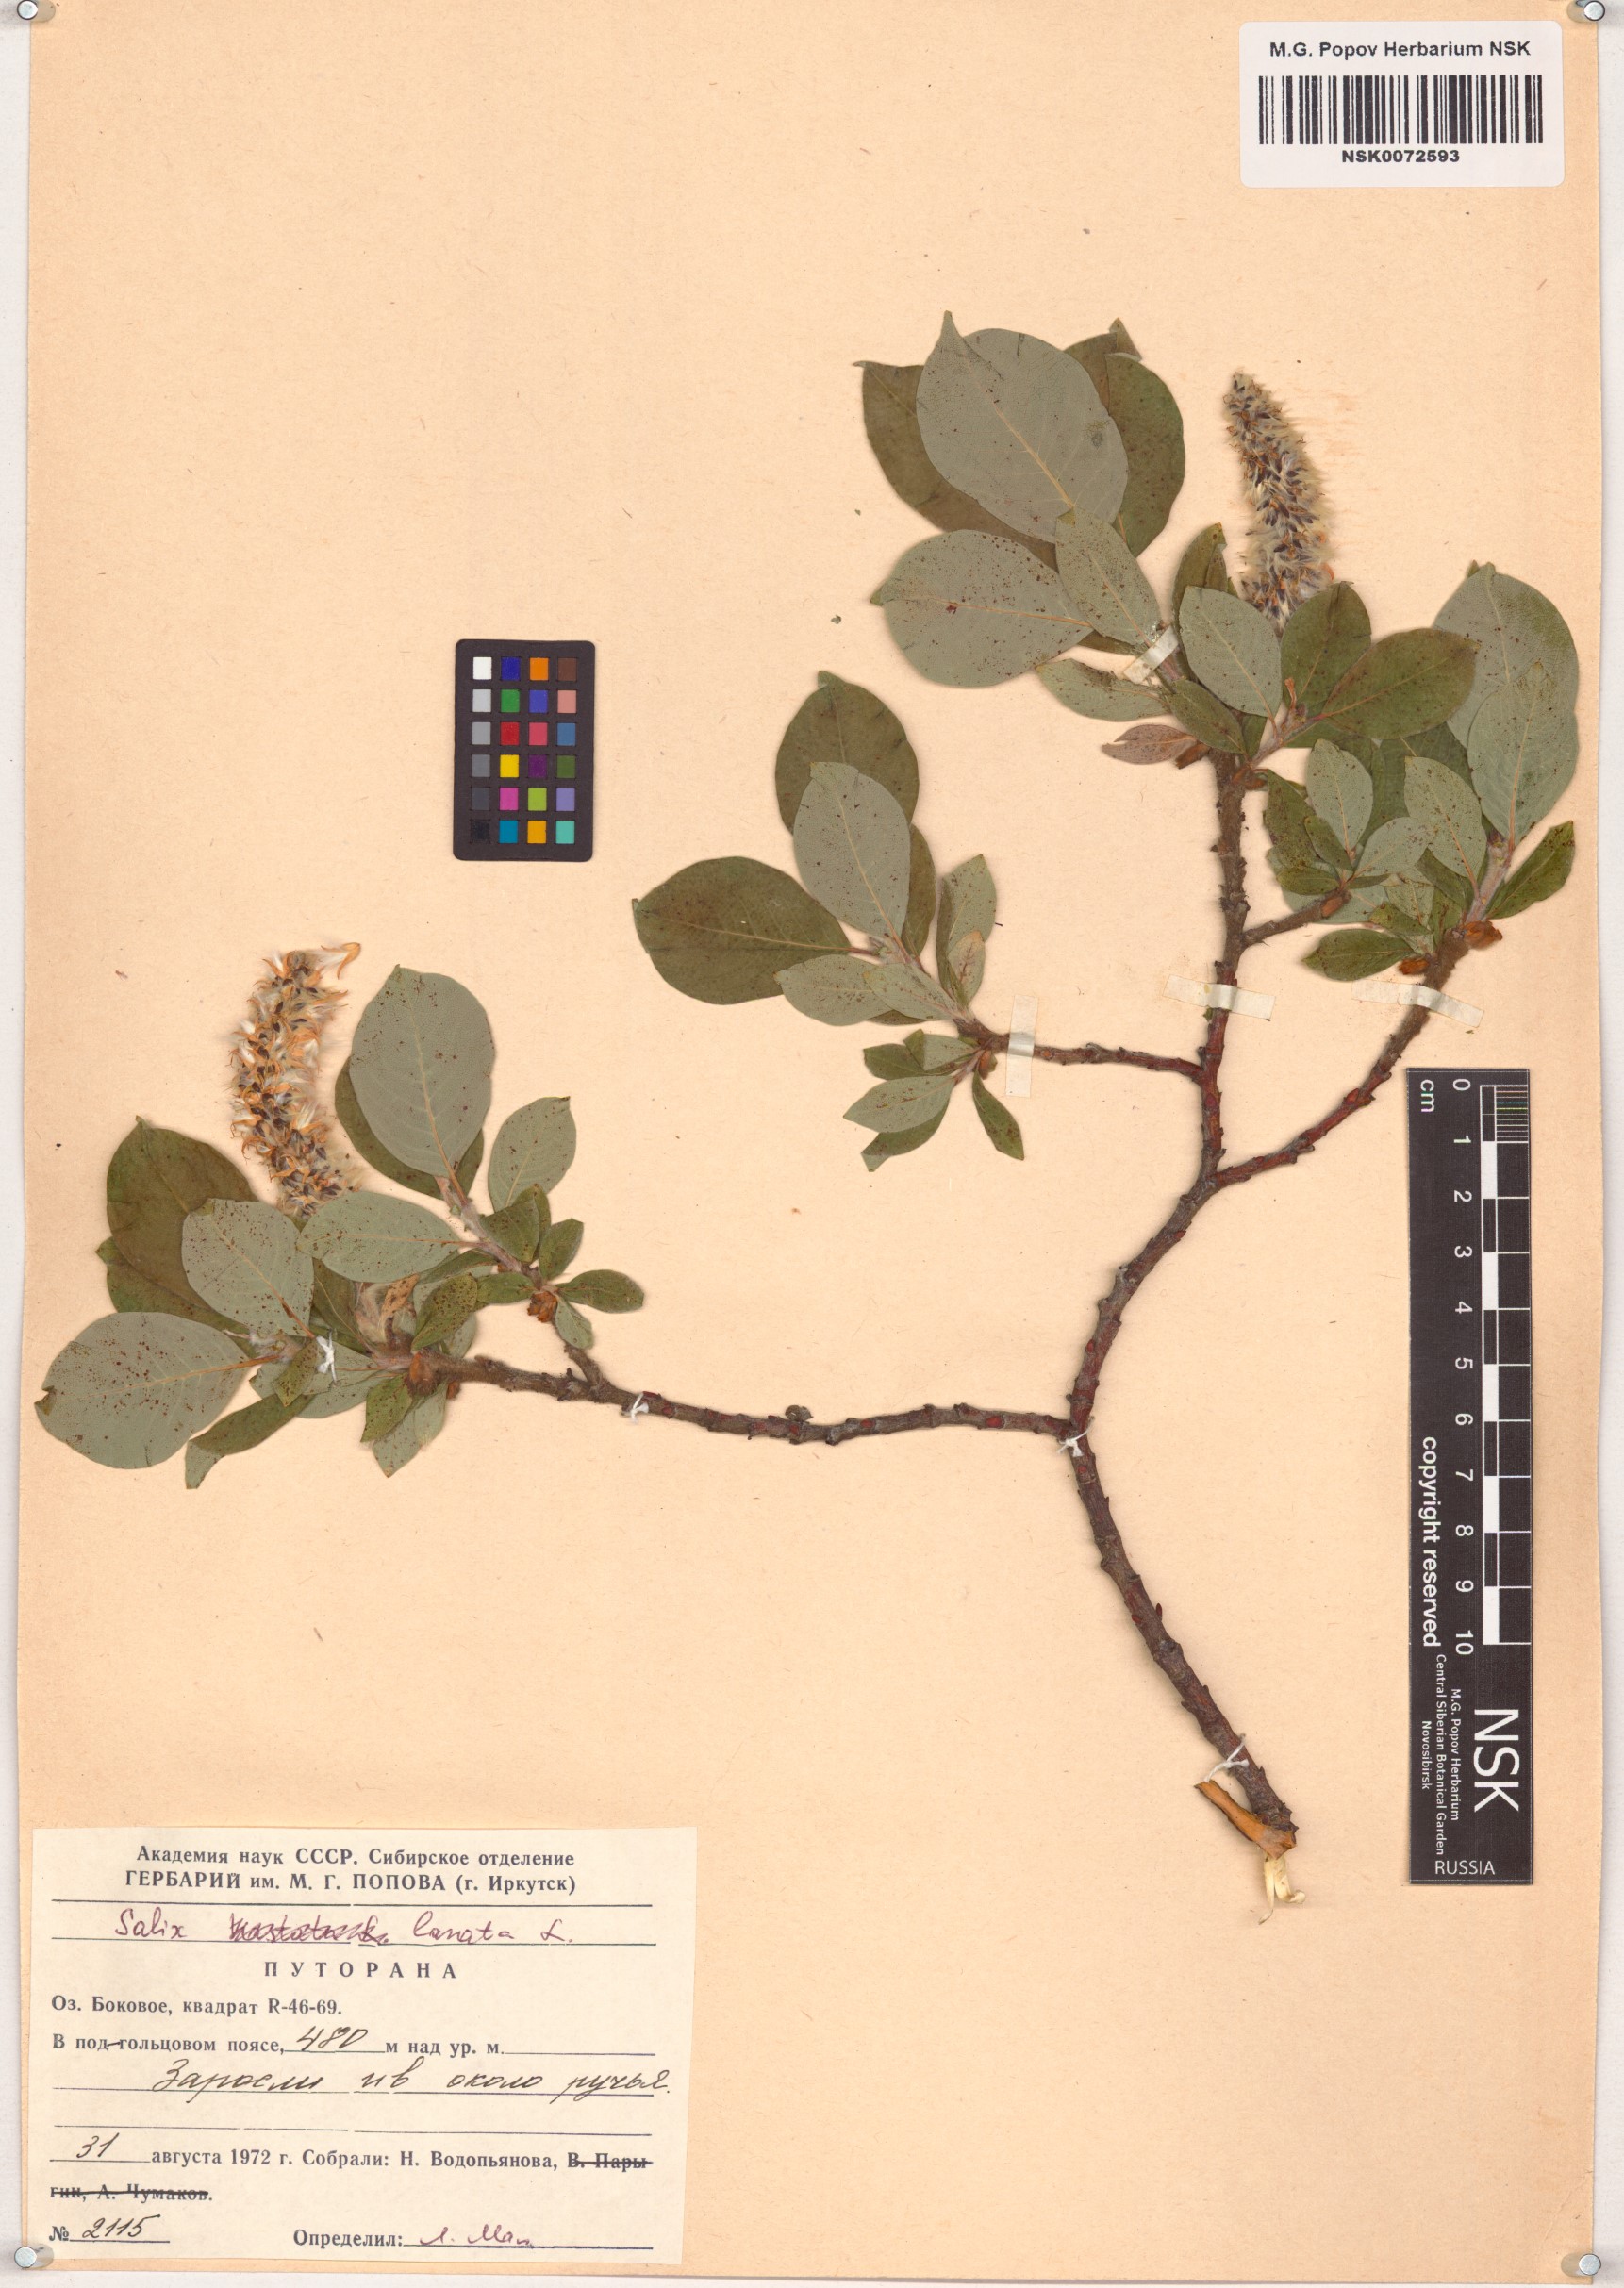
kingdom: Plantae
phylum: Tracheophyta
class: Magnoliopsida
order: Malpighiales
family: Salicaceae
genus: Salix
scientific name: Salix lanata
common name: Woolly willow
